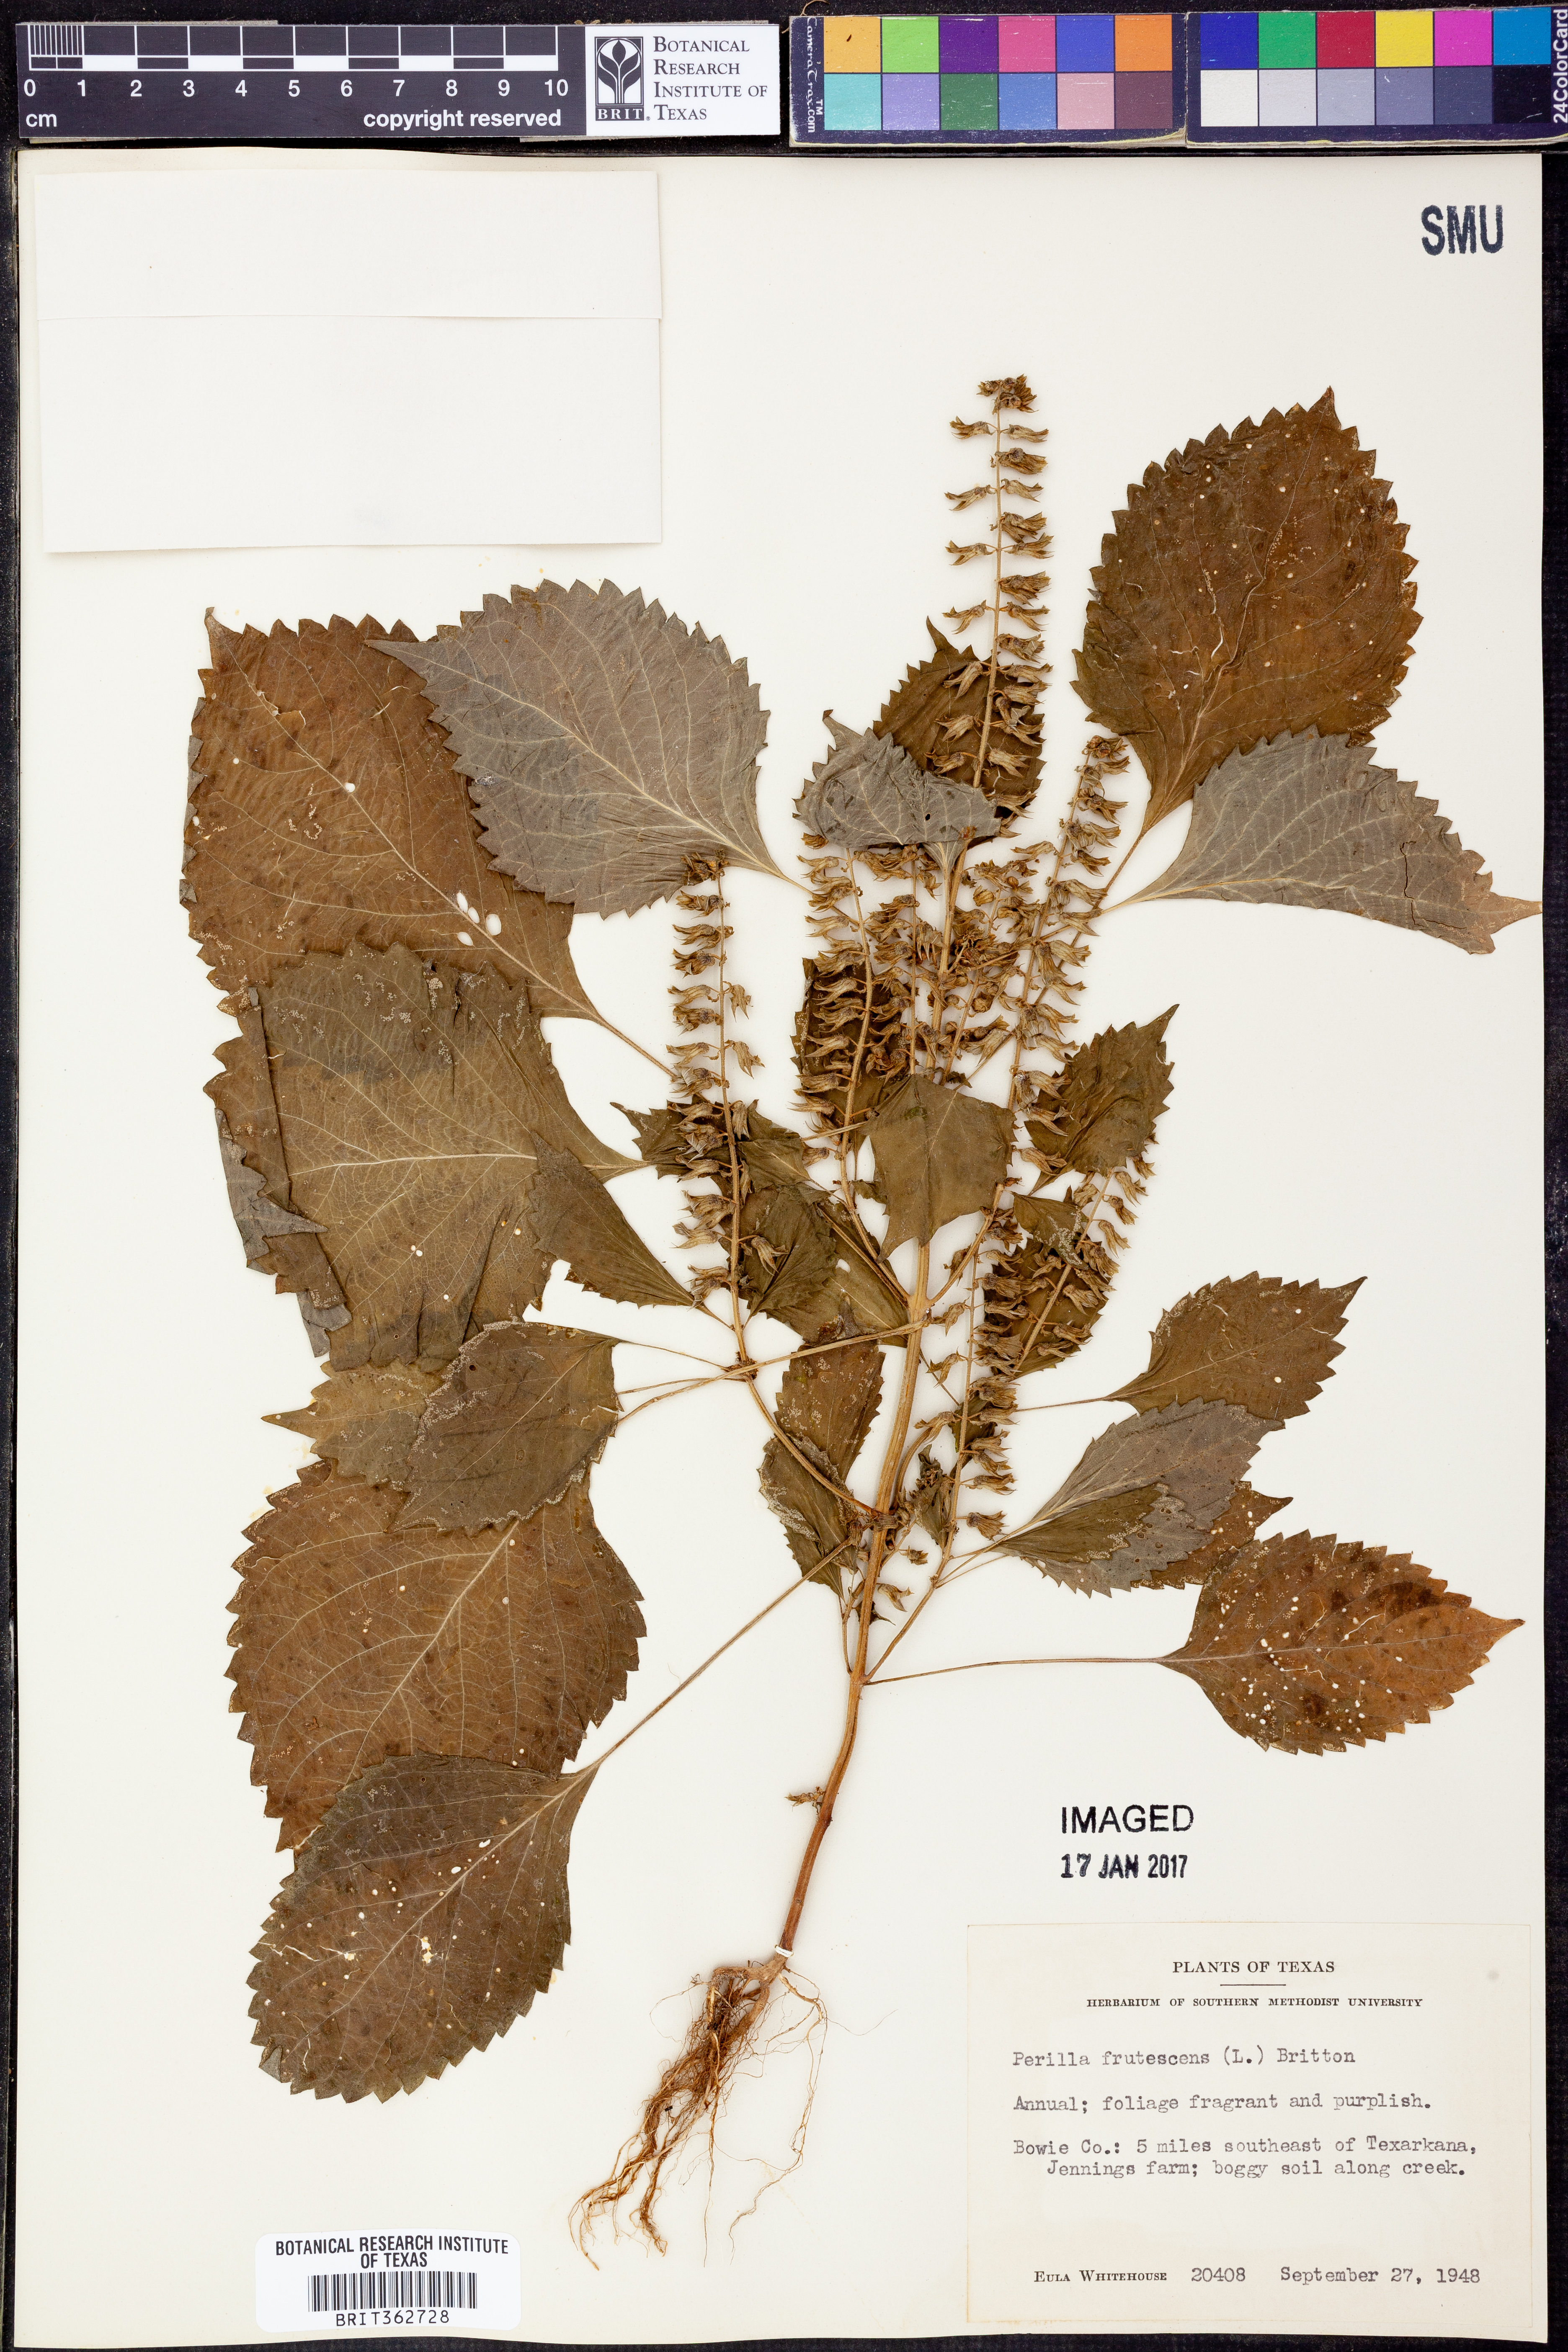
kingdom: Plantae
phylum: Tracheophyta
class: Magnoliopsida
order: Lamiales
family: Lamiaceae
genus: Perilla
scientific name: Perilla frutescens
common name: Perilla
